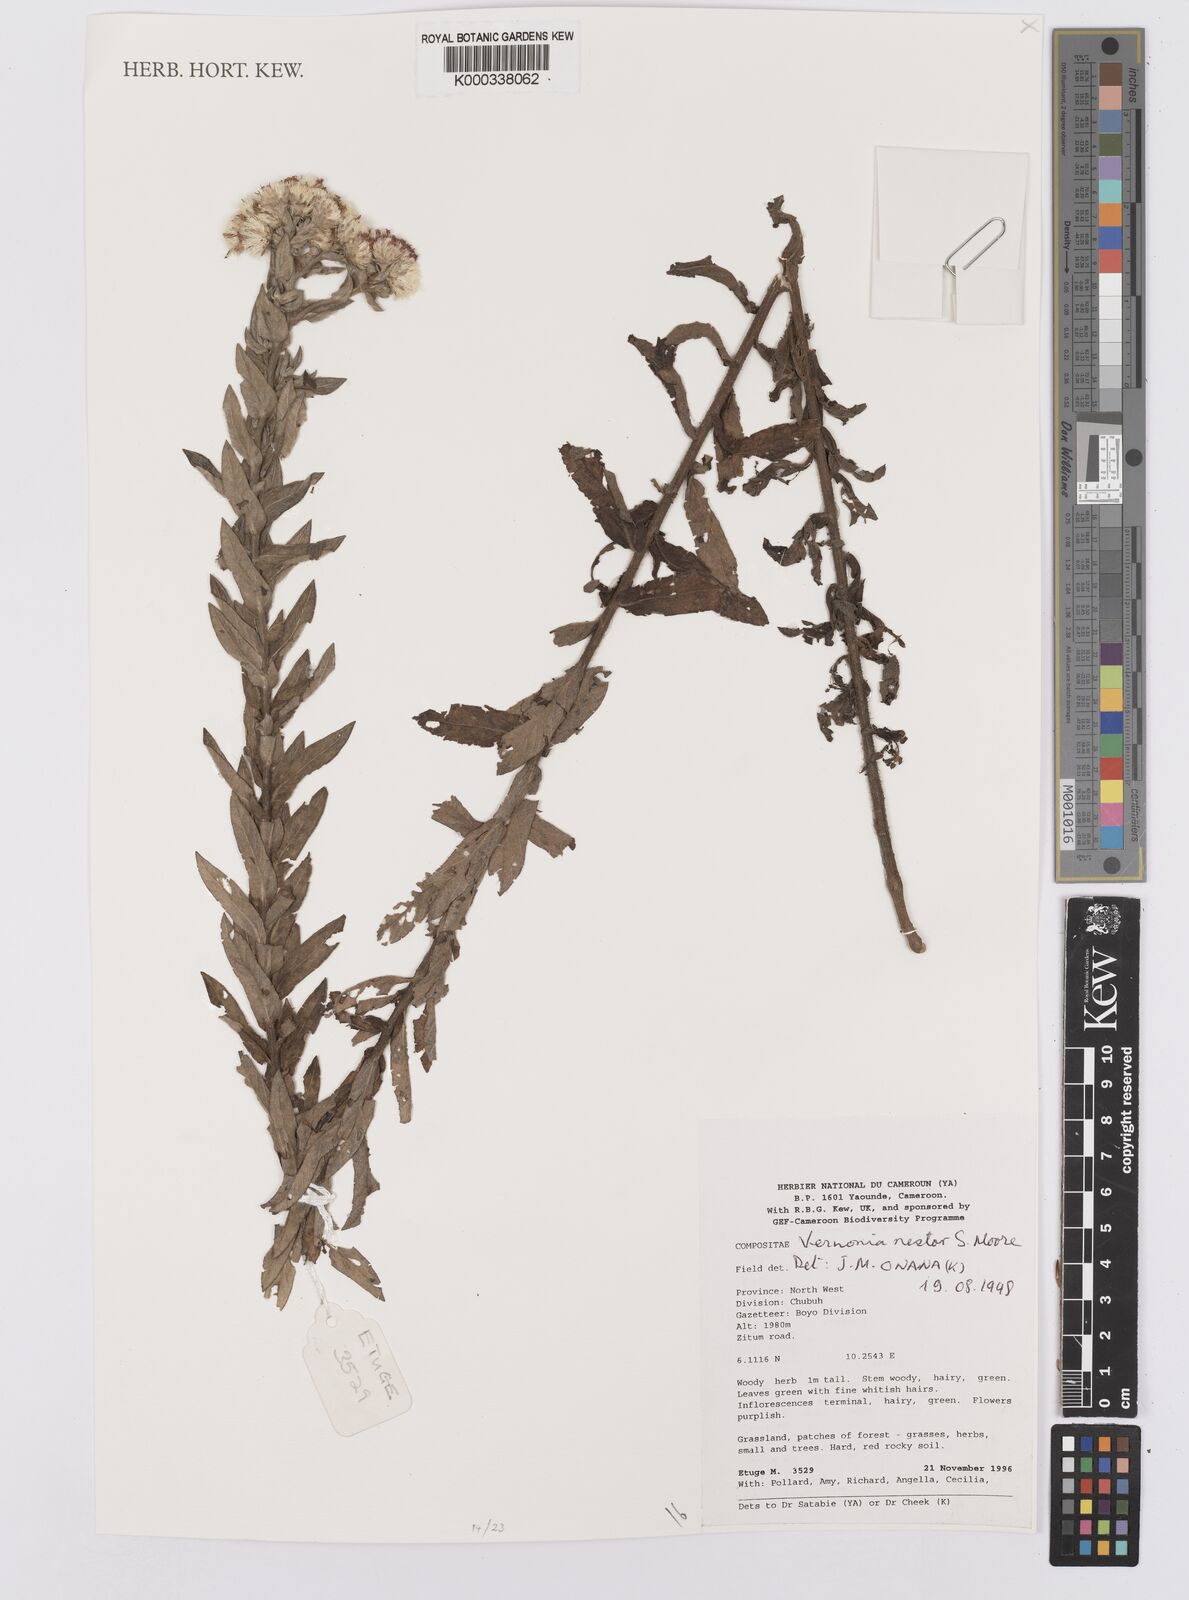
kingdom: Plantae
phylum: Tracheophyta
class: Magnoliopsida
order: Asterales
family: Asteraceae
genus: Vernoniastrum
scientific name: Vernoniastrum nestor
